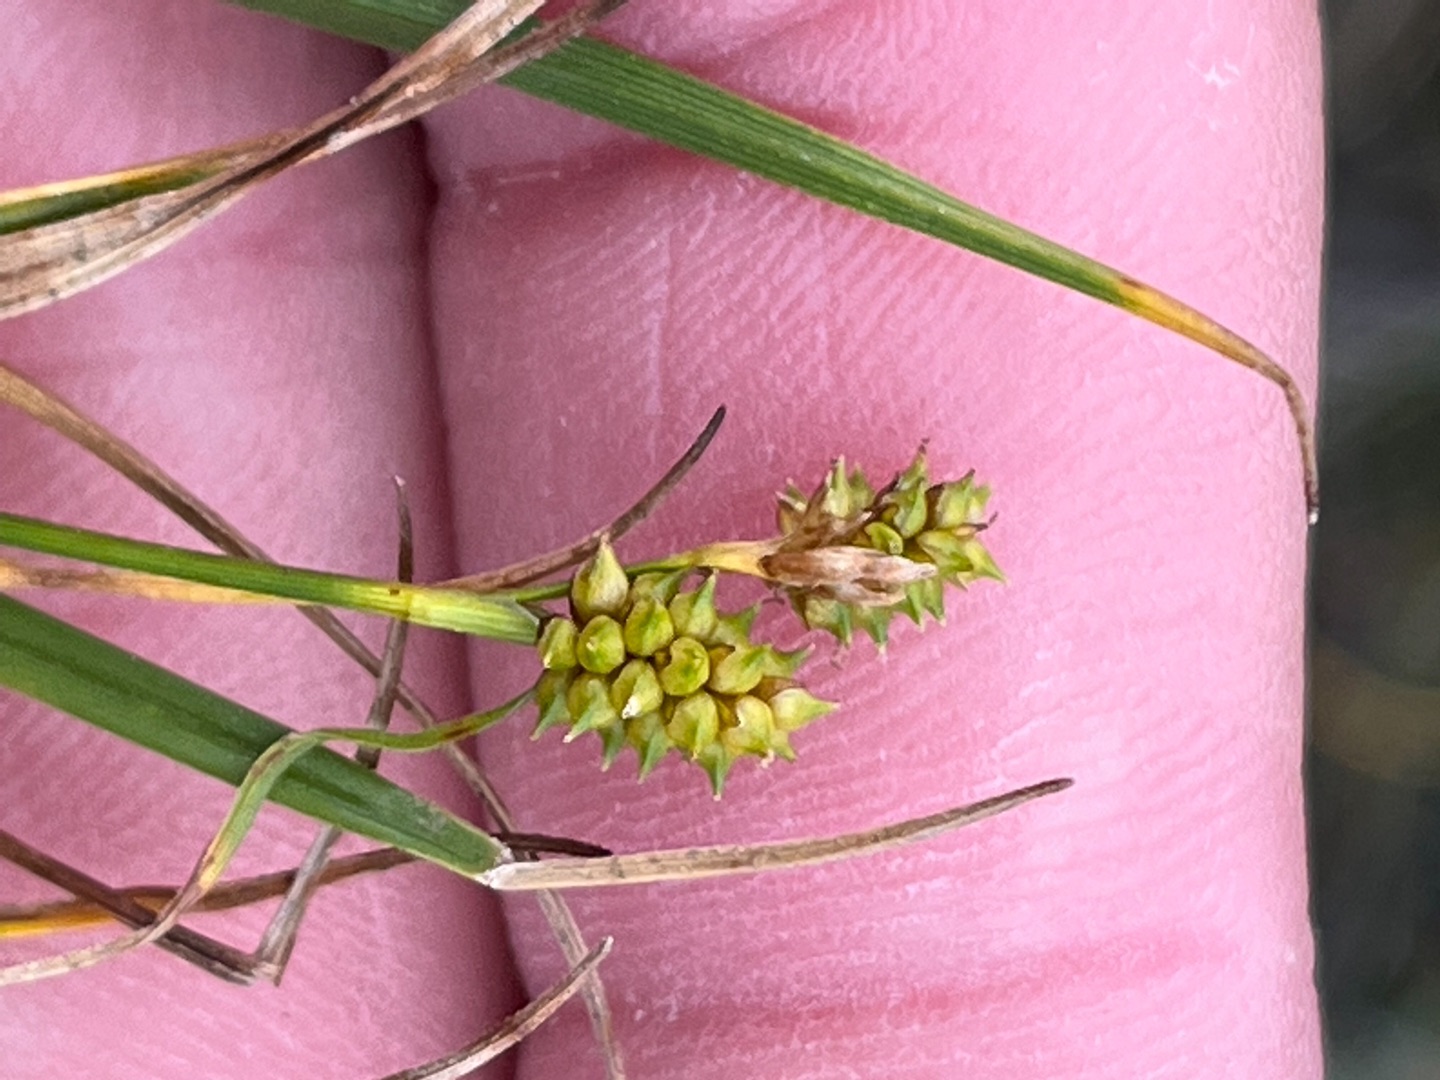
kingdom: Plantae
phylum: Tracheophyta
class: Liliopsida
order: Poales
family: Cyperaceae
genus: Carex
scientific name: Carex oederi
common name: Dværg-star (varietet)
